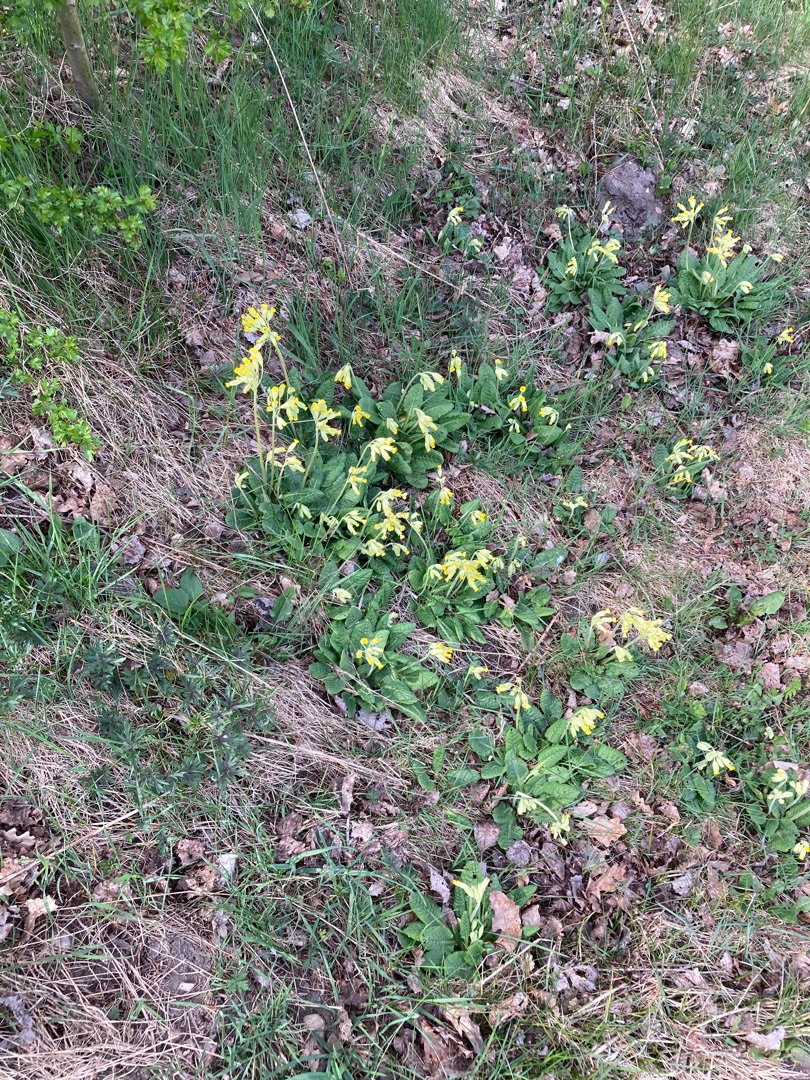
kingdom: Plantae
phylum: Tracheophyta
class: Magnoliopsida
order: Ericales
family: Primulaceae
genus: Primula
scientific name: Primula veris
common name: Hulkravet kodriver
